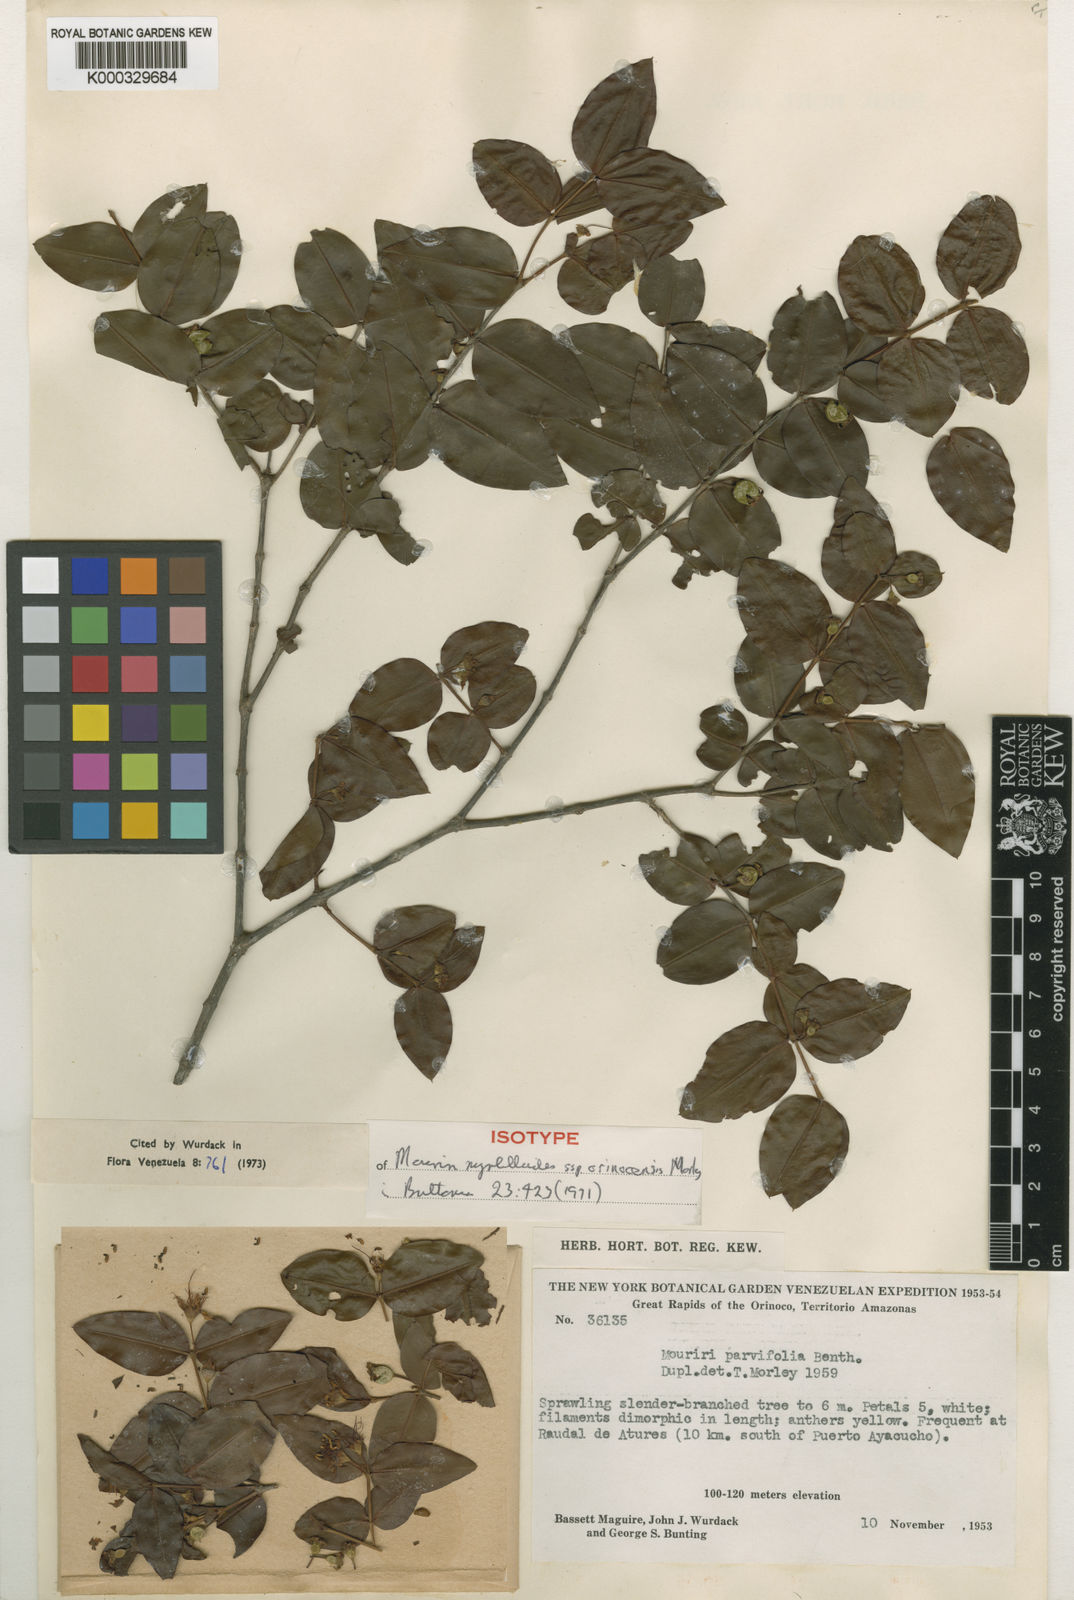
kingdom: Plantae
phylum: Tracheophyta
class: Magnoliopsida
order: Myrtales
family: Melastomataceae
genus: Mouriri
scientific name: Mouriri myrtilloides
